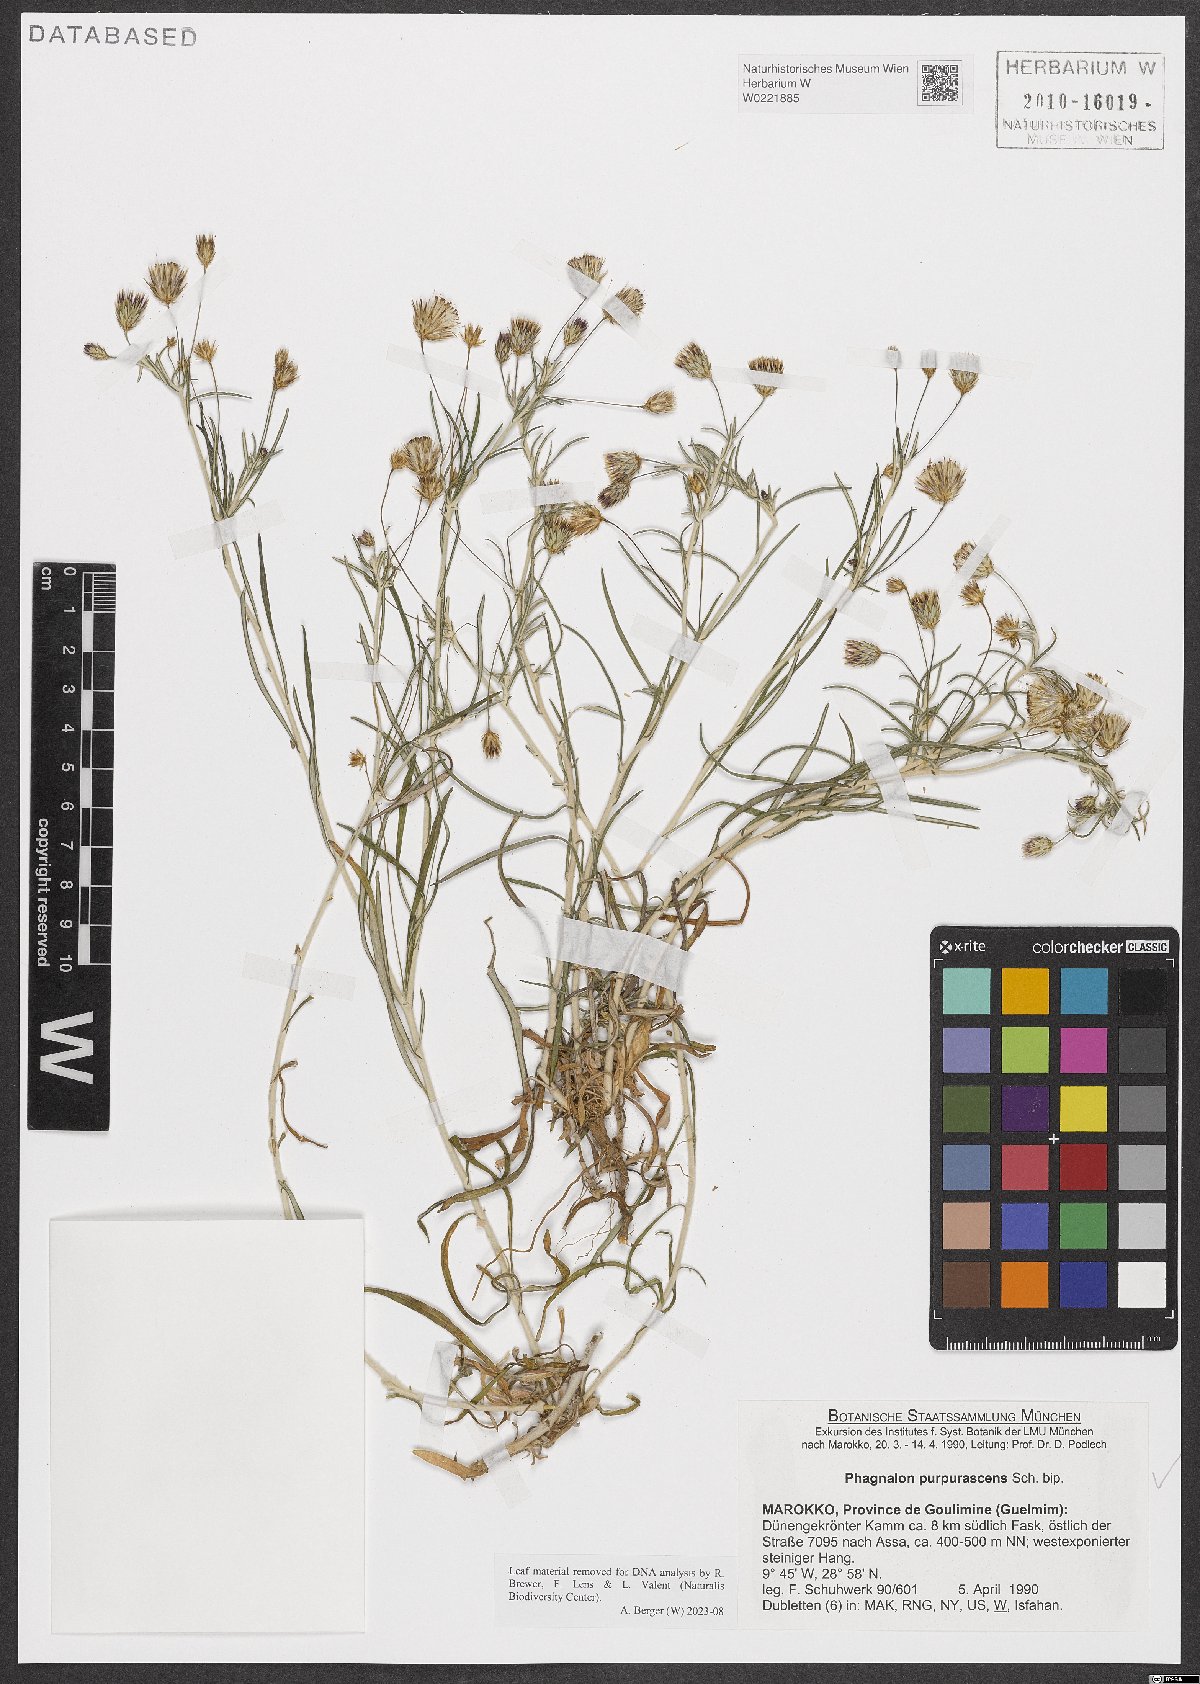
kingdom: Plantae
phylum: Tracheophyta
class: Magnoliopsida
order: Asterales
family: Asteraceae
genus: Phagnalon
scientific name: Phagnalon purpurascens
